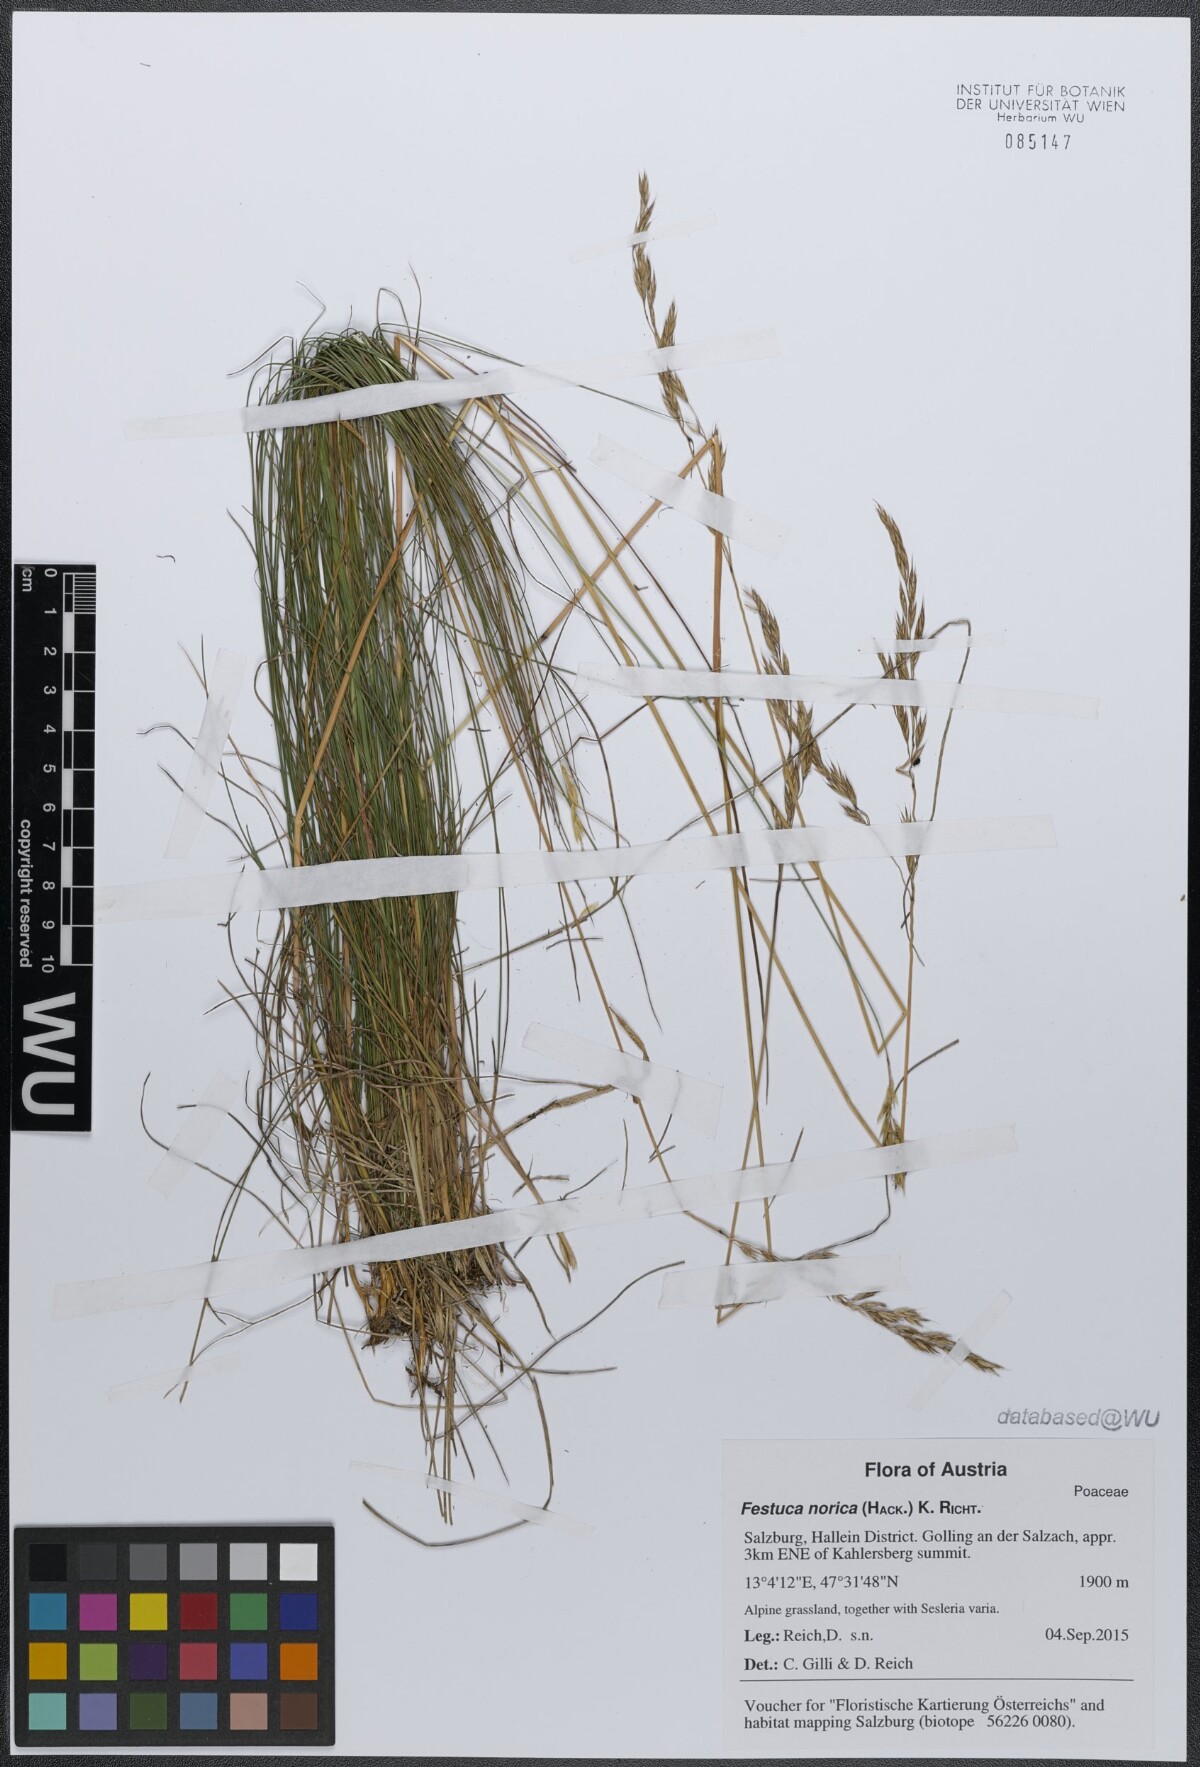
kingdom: Plantae
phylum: Tracheophyta
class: Liliopsida
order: Poales
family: Poaceae
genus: Festuca
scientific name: Festuca norica
